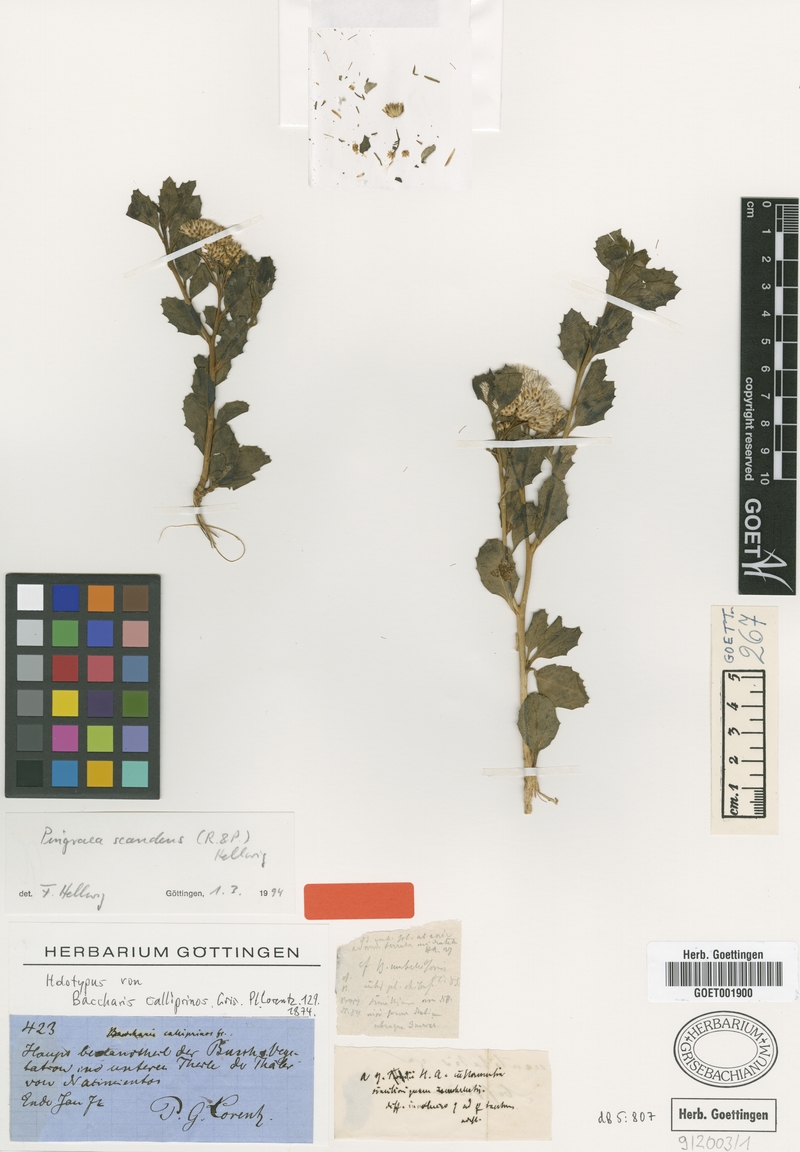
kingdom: Plantae
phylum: Tracheophyta
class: Magnoliopsida
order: Asterales
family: Asteraceae
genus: Baccharis
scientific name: Baccharis scandens
